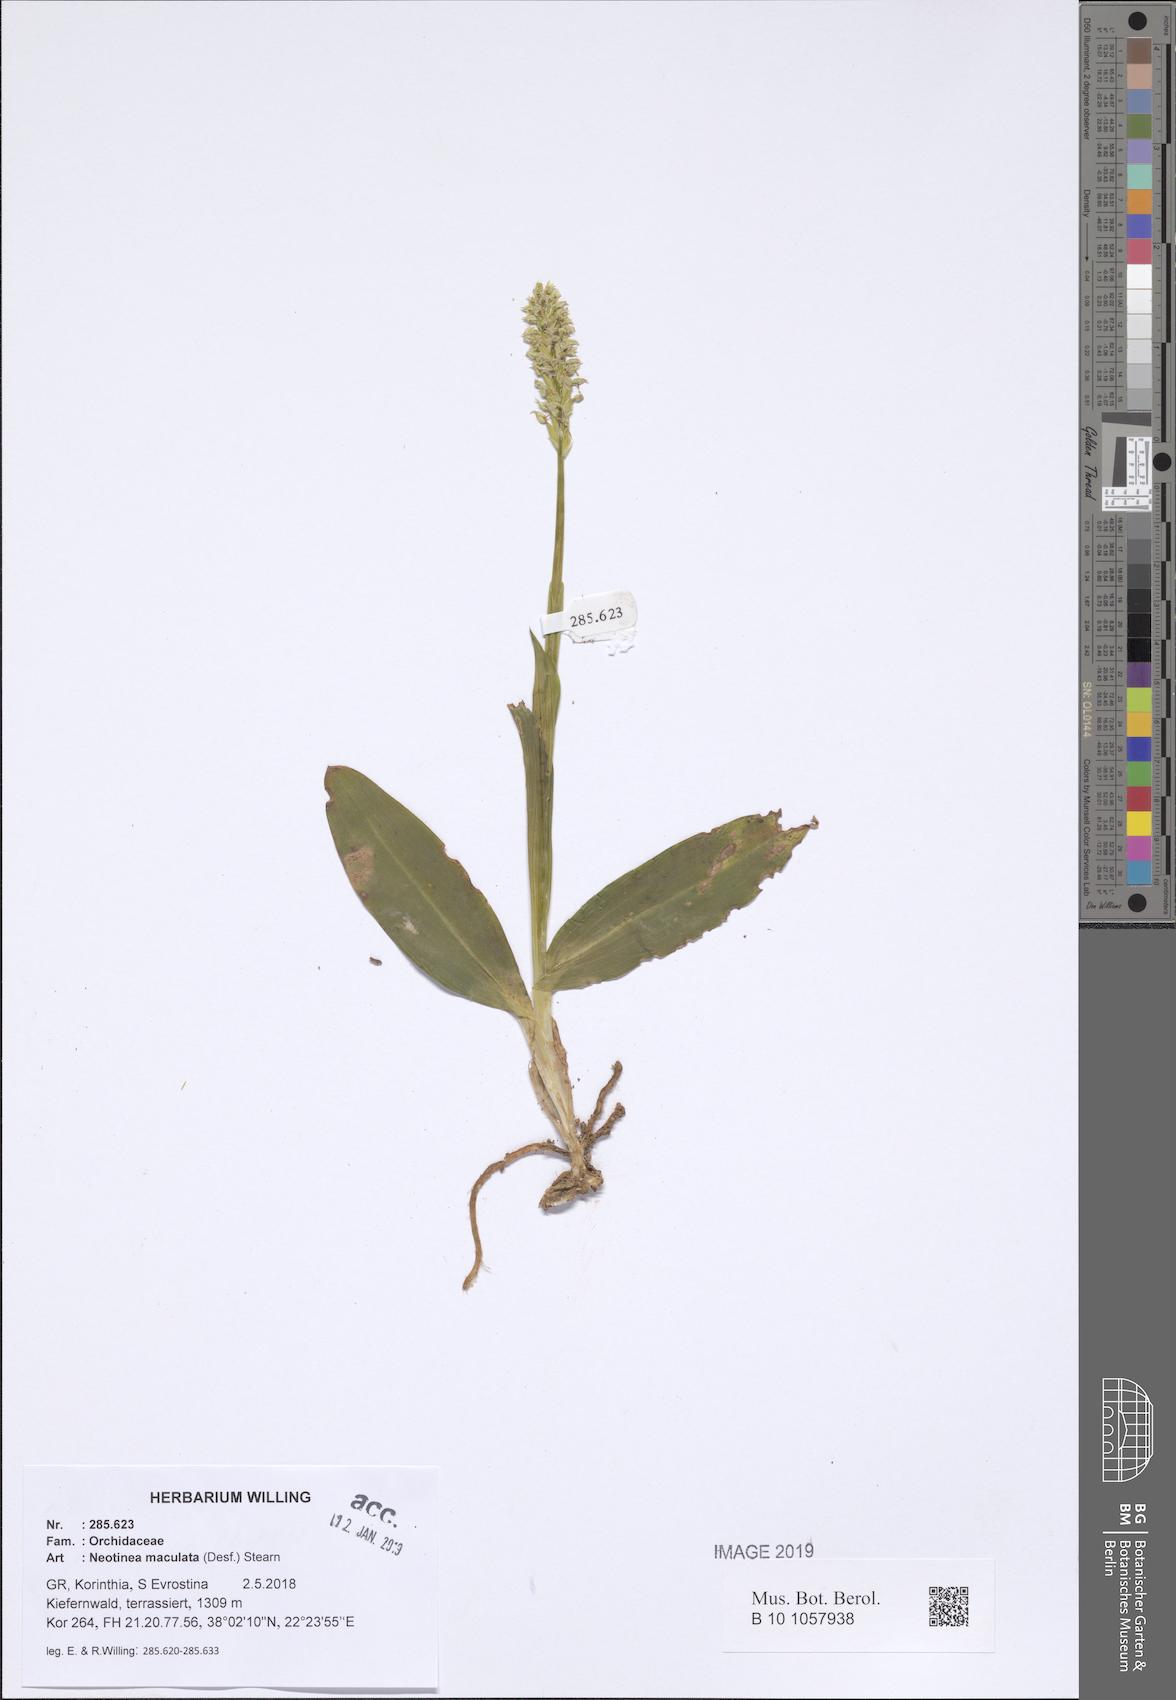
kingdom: Plantae
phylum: Tracheophyta
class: Liliopsida
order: Asparagales
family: Orchidaceae
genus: Neotinea
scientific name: Neotinea maculata
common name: Dense-flowered orchid
